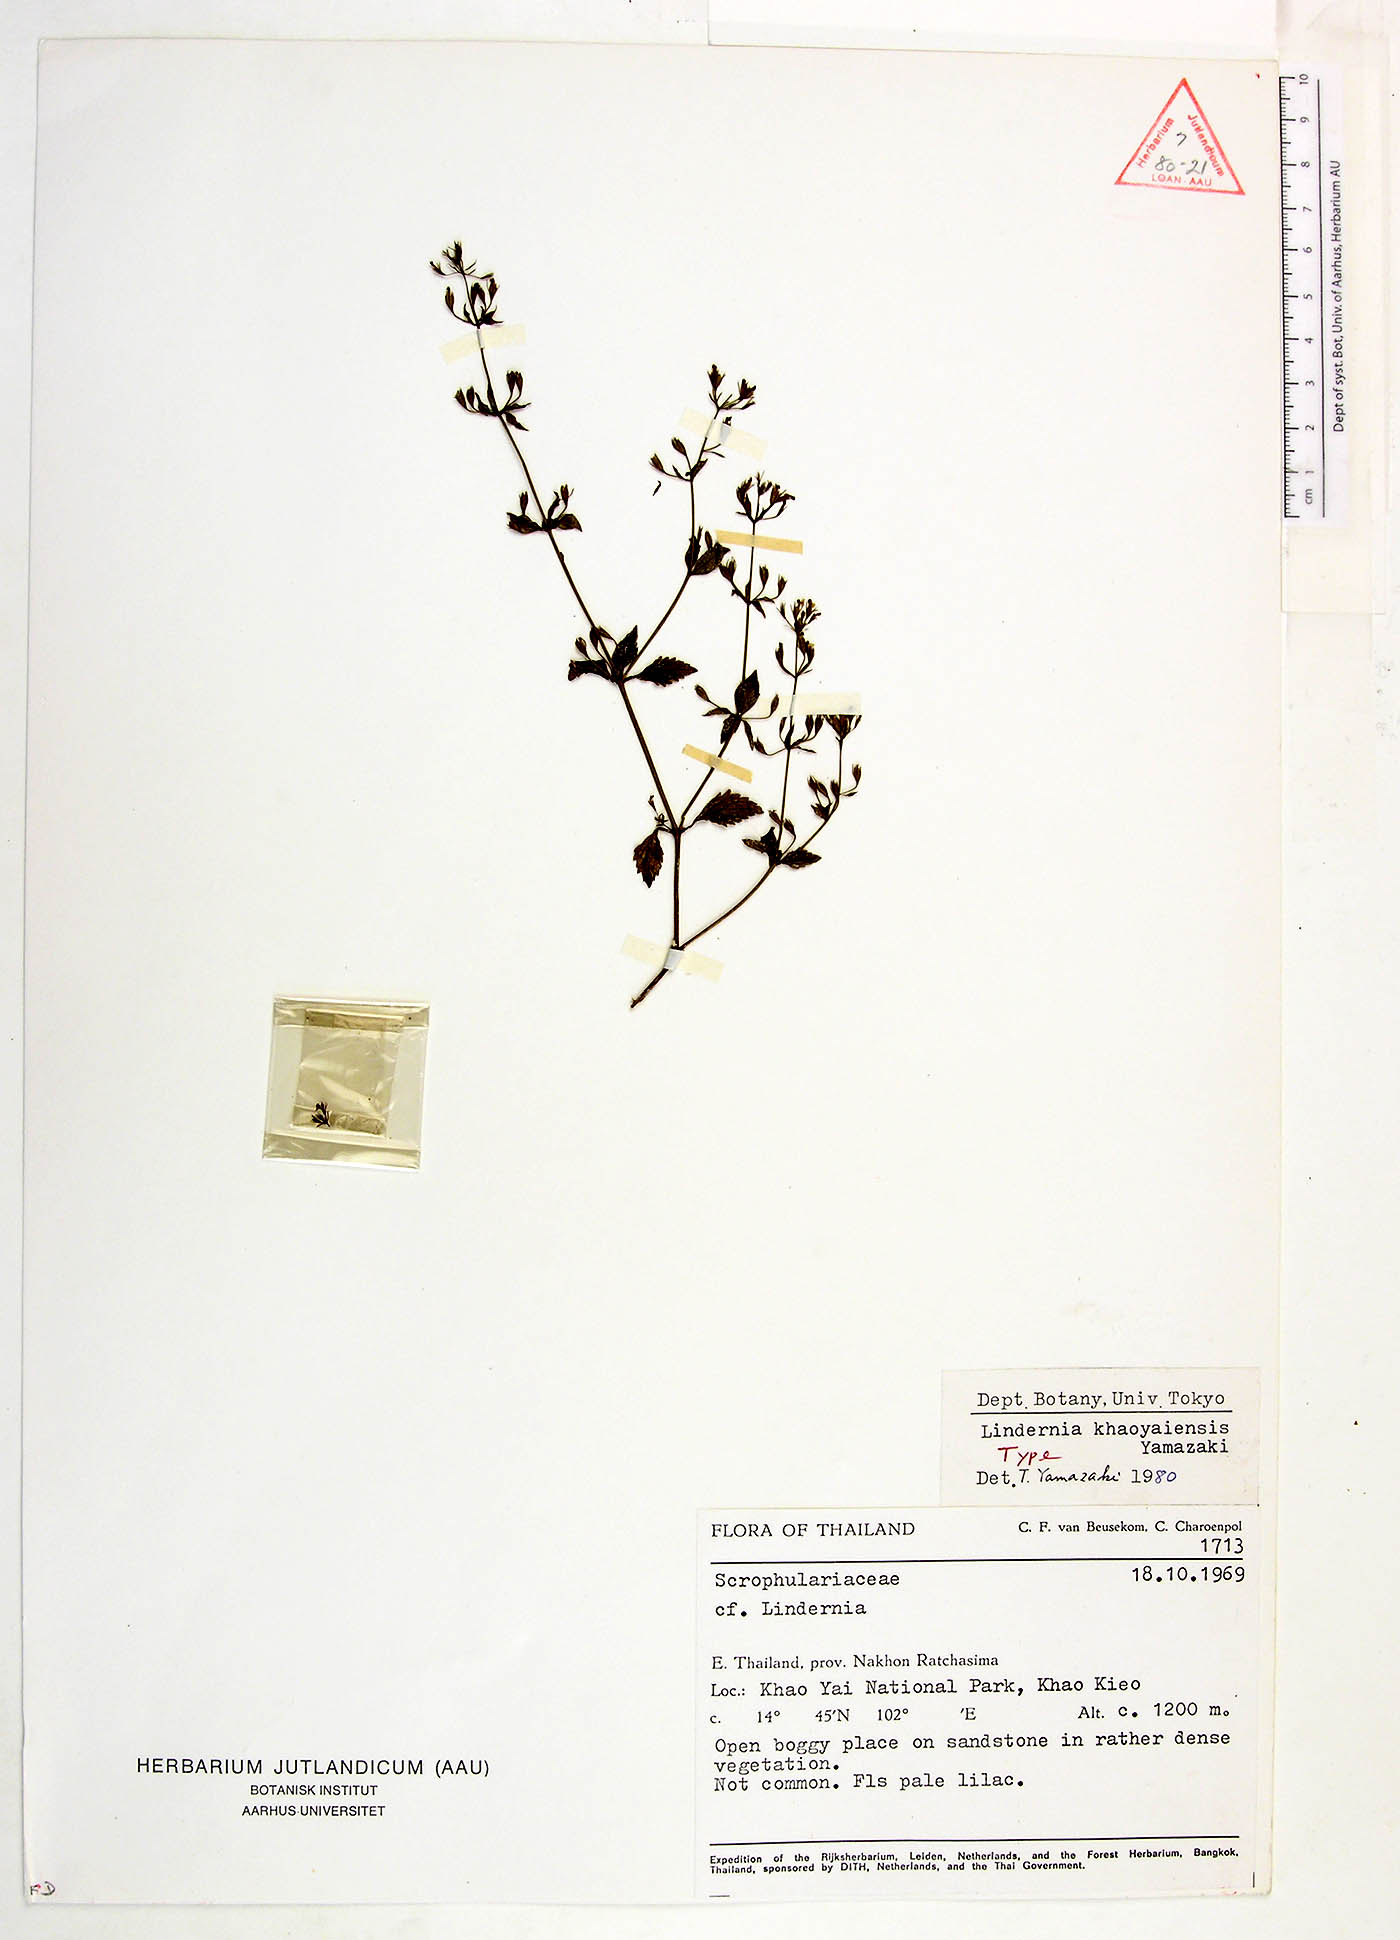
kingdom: Plantae
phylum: Tracheophyta
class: Magnoliopsida
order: Lamiales
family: Linderniaceae
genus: Vandellia
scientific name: Vandellia khaoyaiensis
